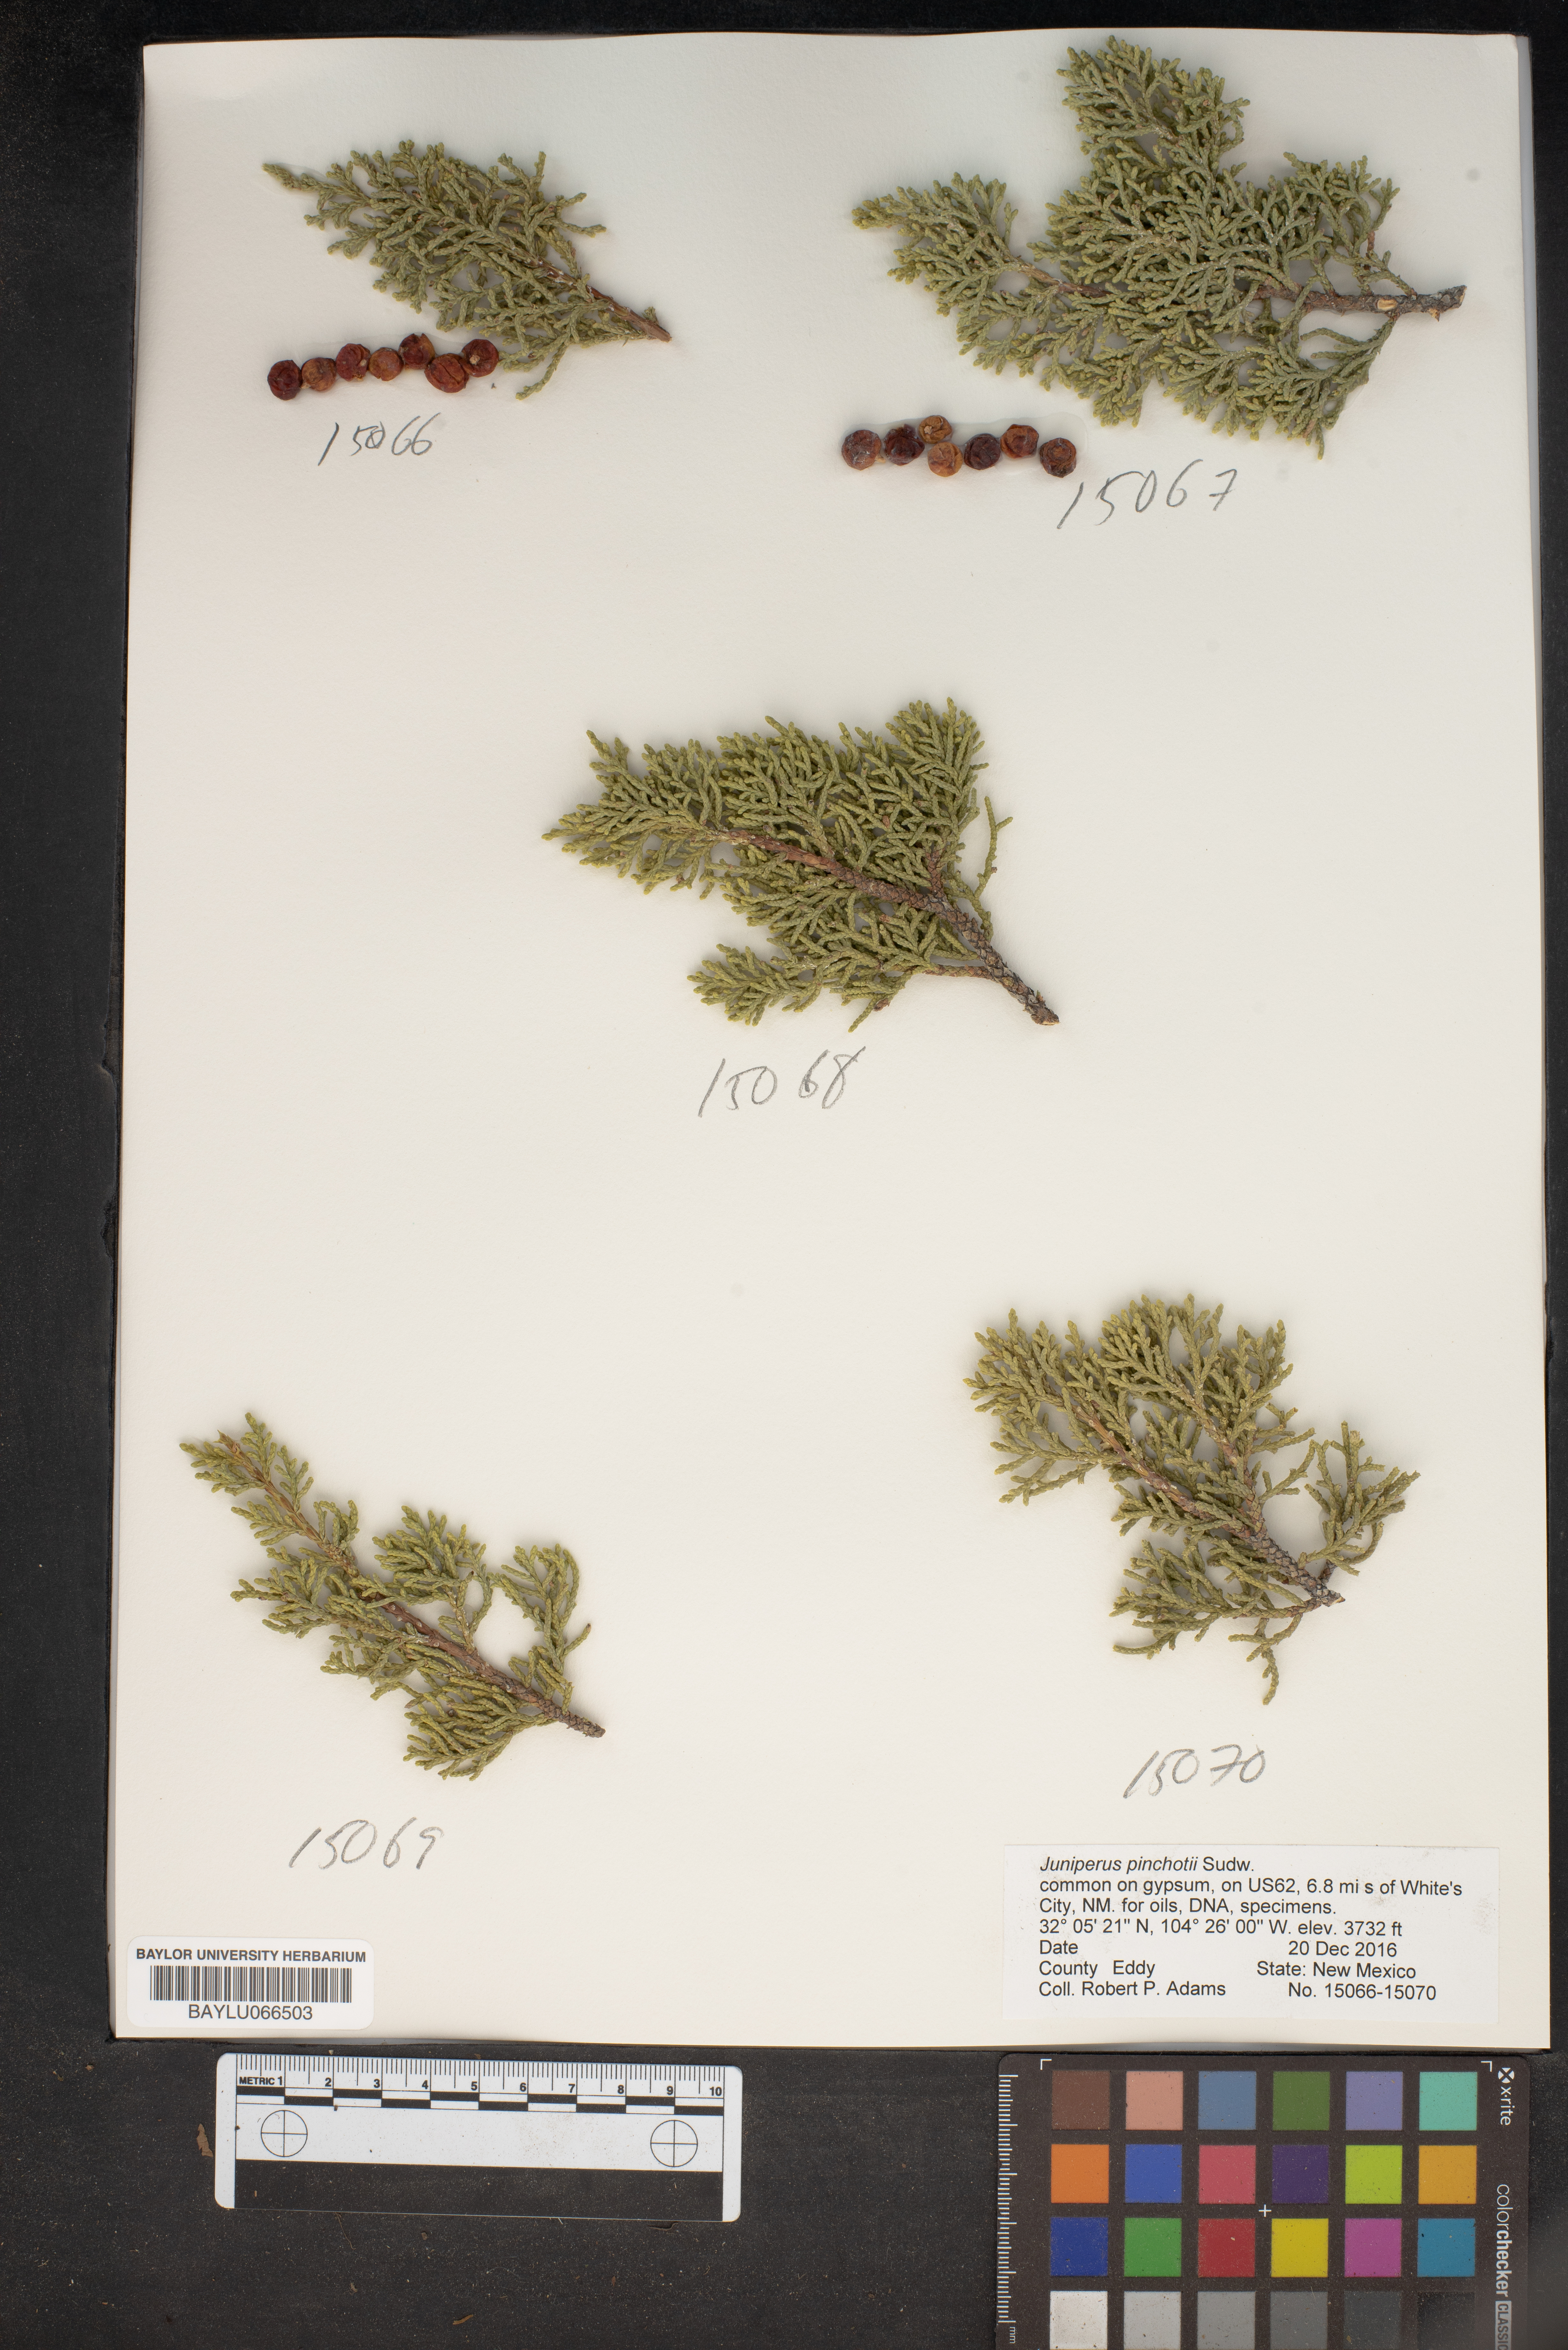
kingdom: Plantae
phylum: Tracheophyta
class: Pinopsida
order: Pinales
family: Cupressaceae
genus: Juniperus
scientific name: Juniperus pinchotii
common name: Pinchot juniper
